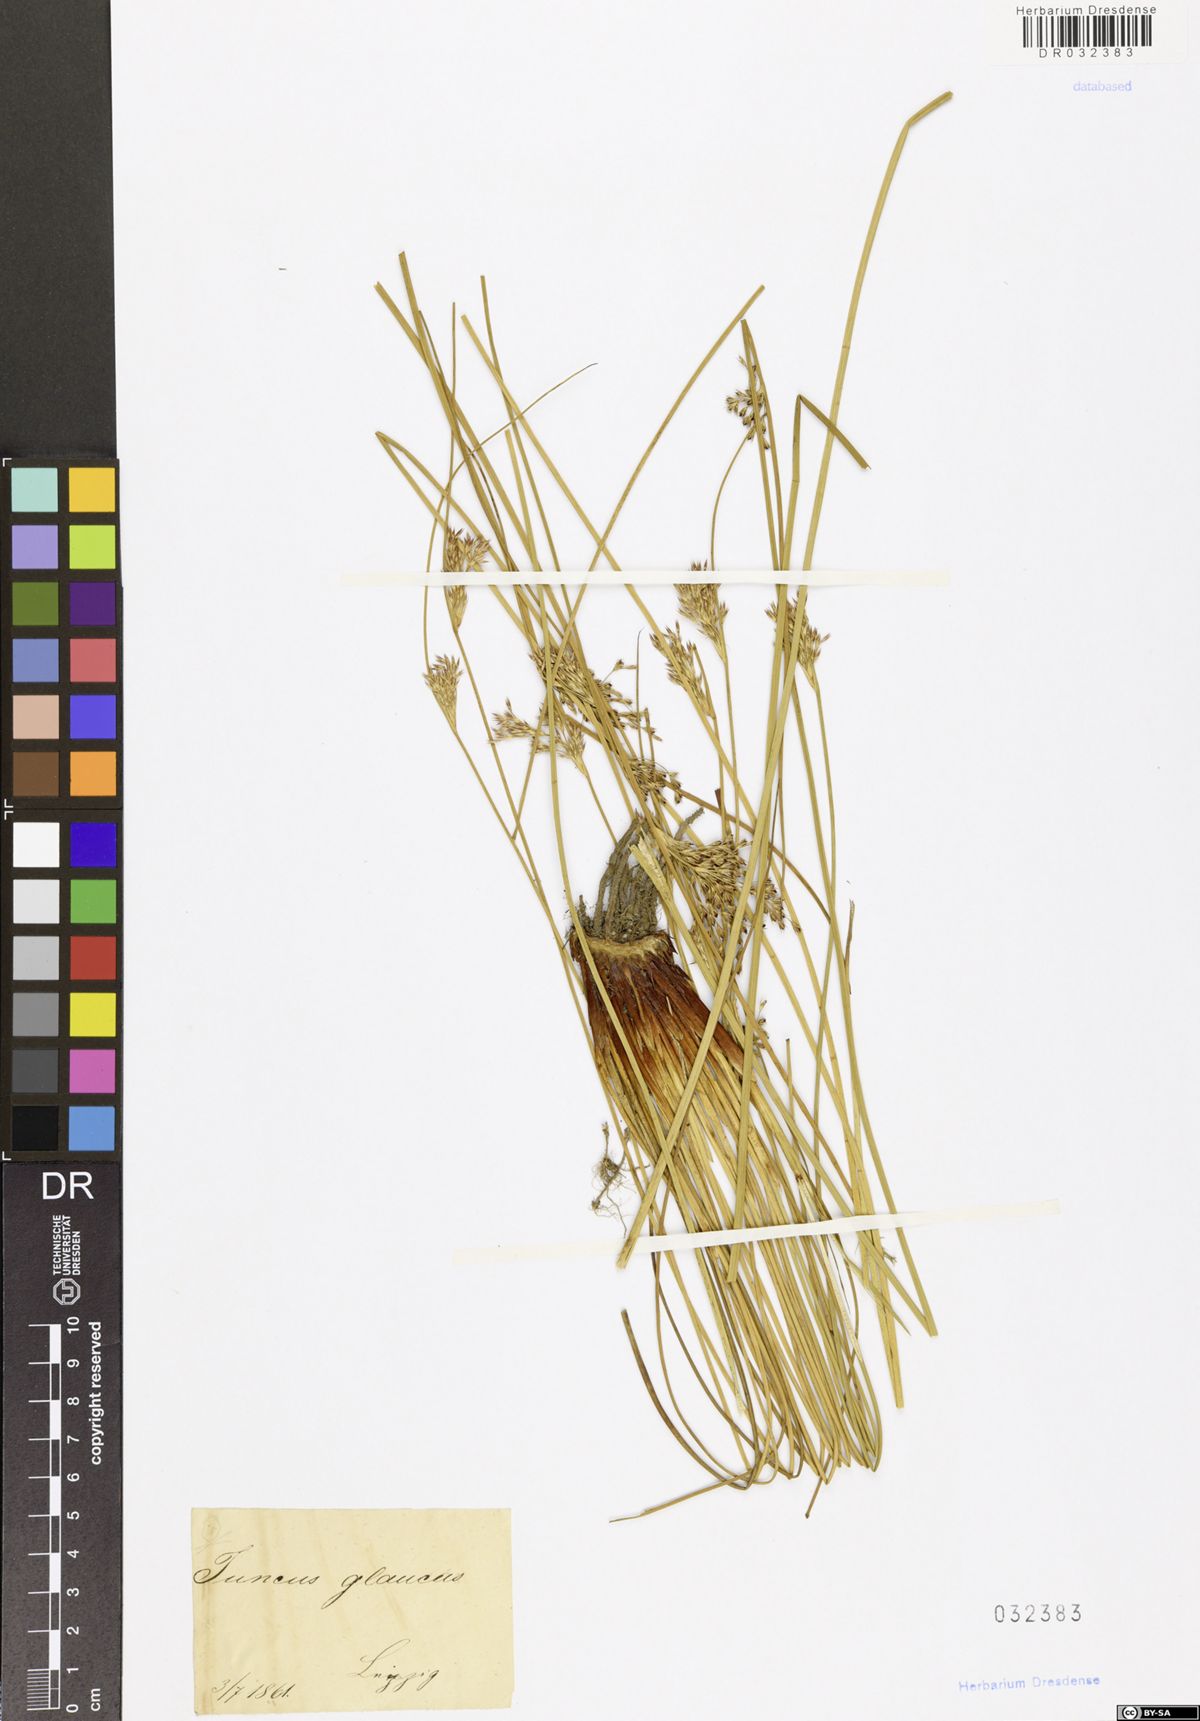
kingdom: Plantae
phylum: Tracheophyta
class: Liliopsida
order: Poales
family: Juncaceae
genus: Juncus
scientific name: Juncus inflexus
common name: Hard rush
